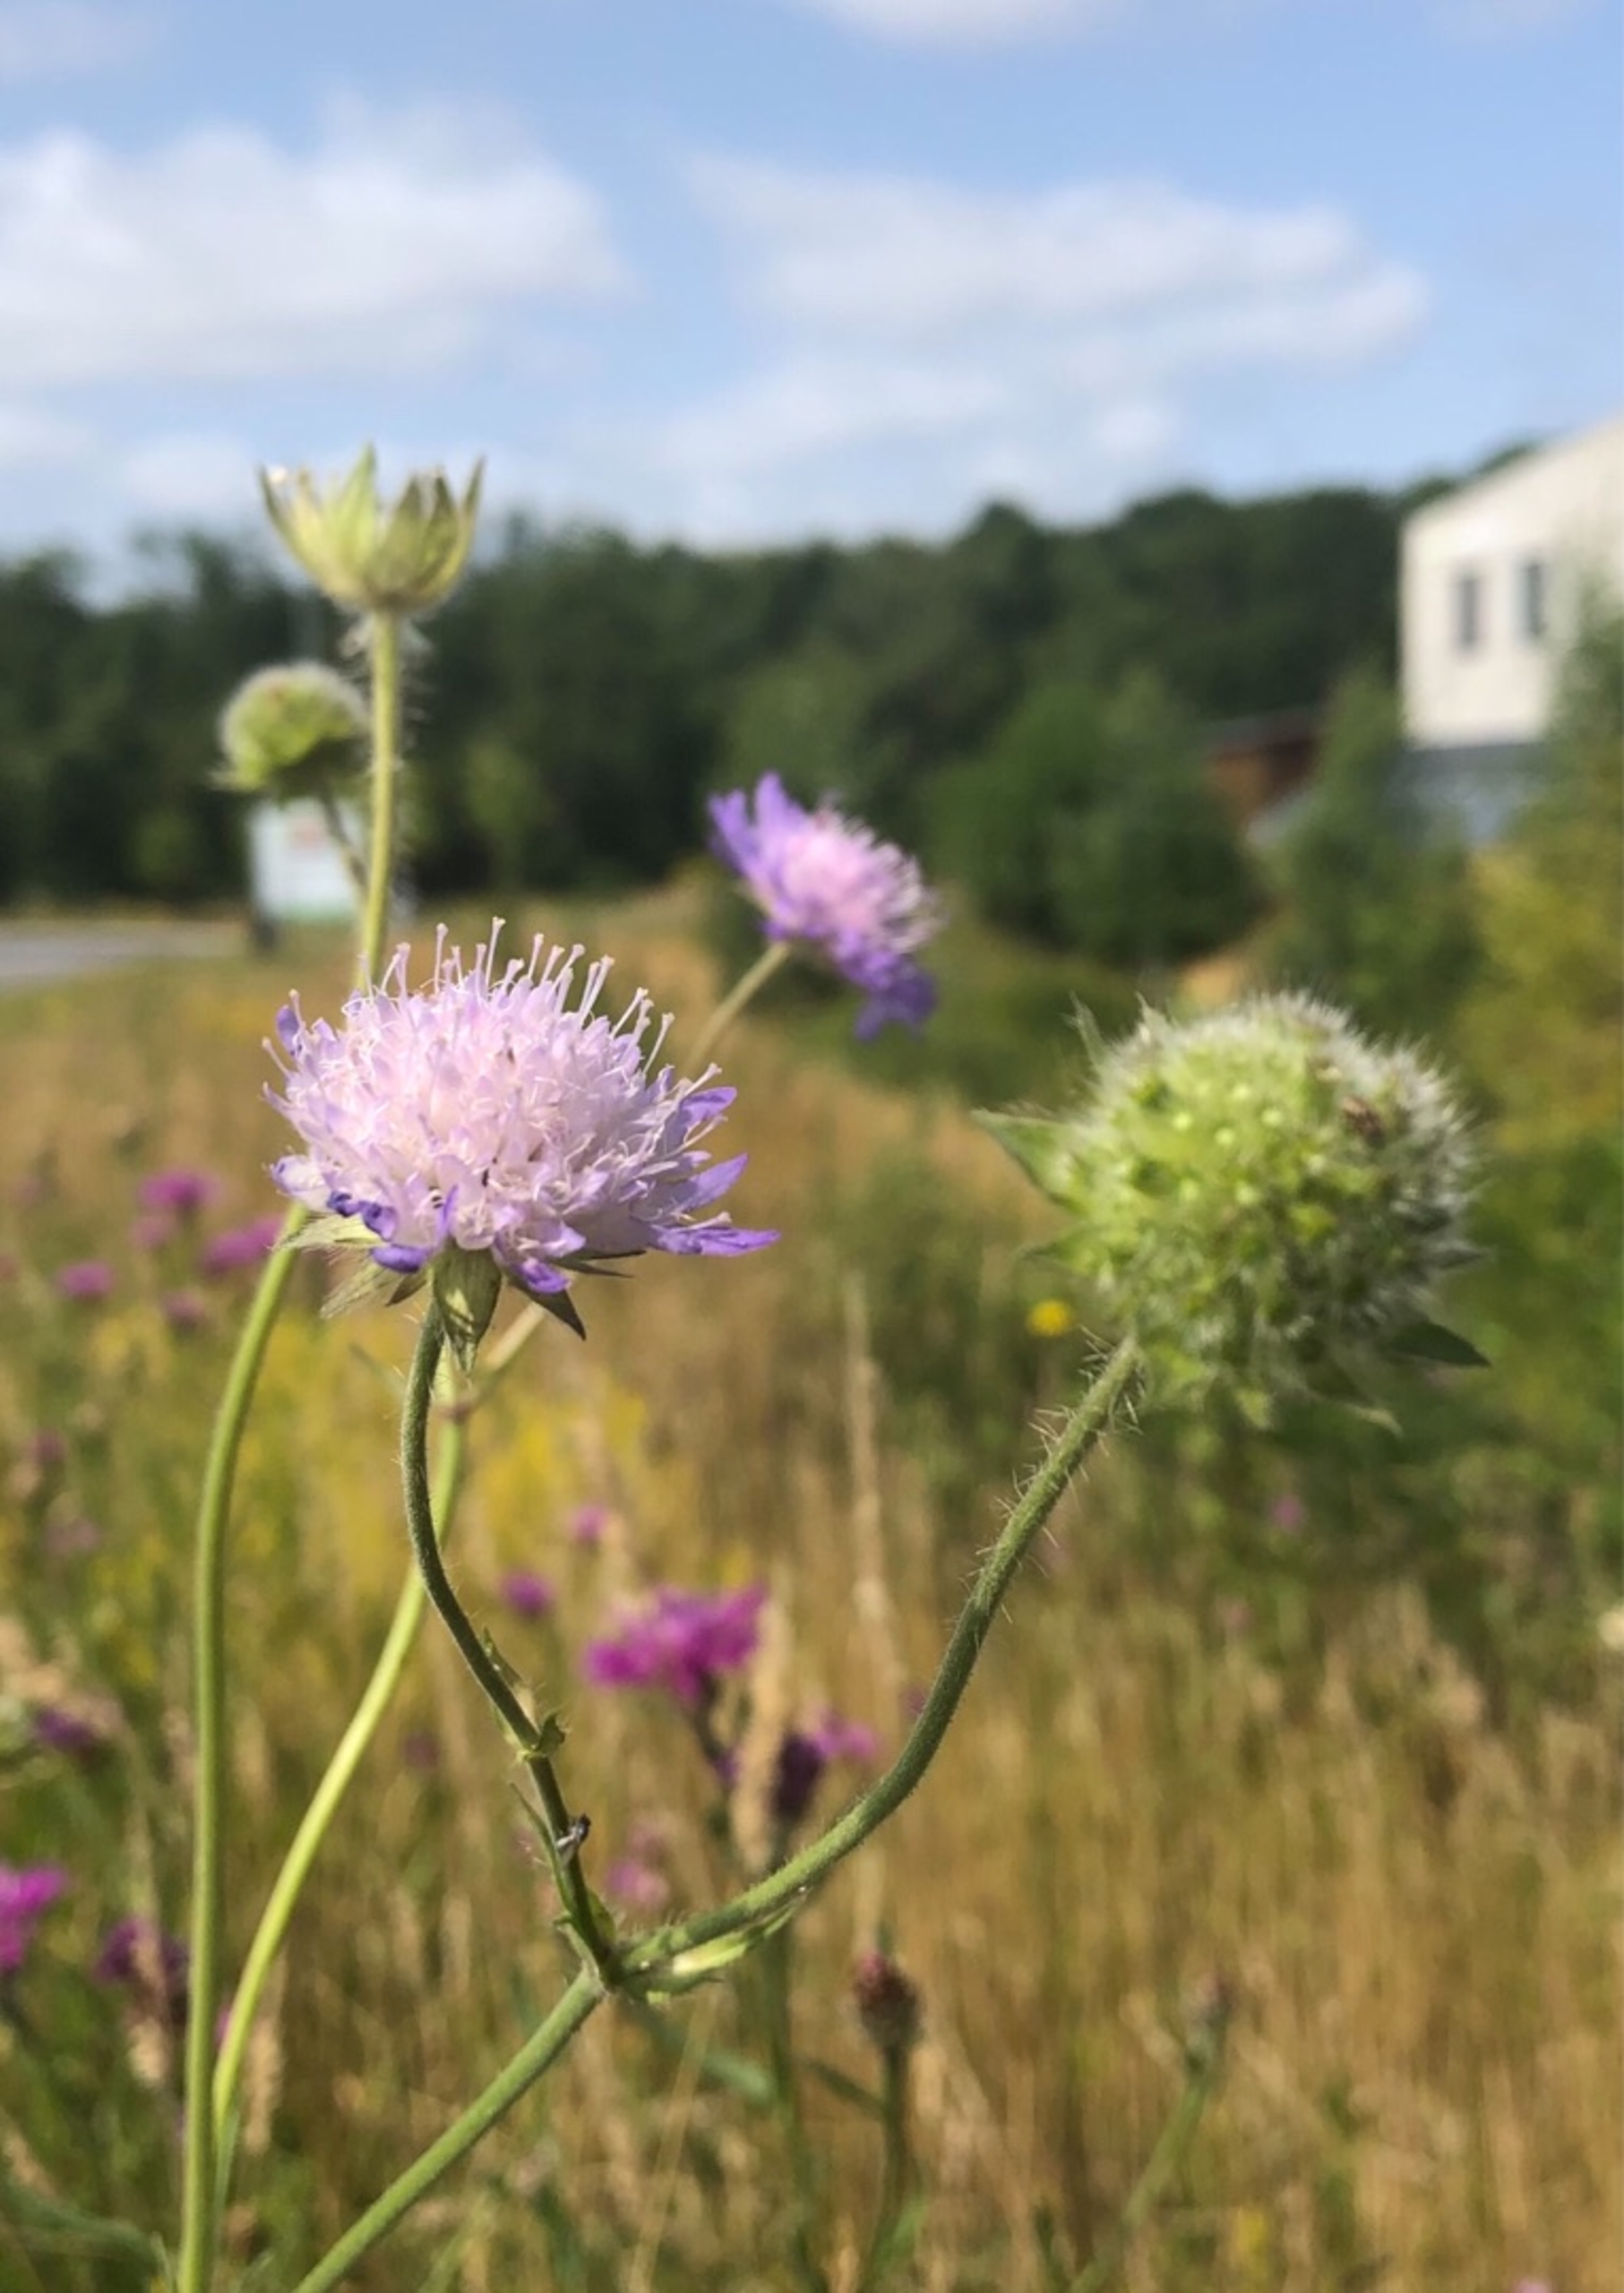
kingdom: Plantae
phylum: Tracheophyta
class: Magnoliopsida
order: Dipsacales
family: Caprifoliaceae
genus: Knautia
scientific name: Knautia arvensis
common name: Blåhat
